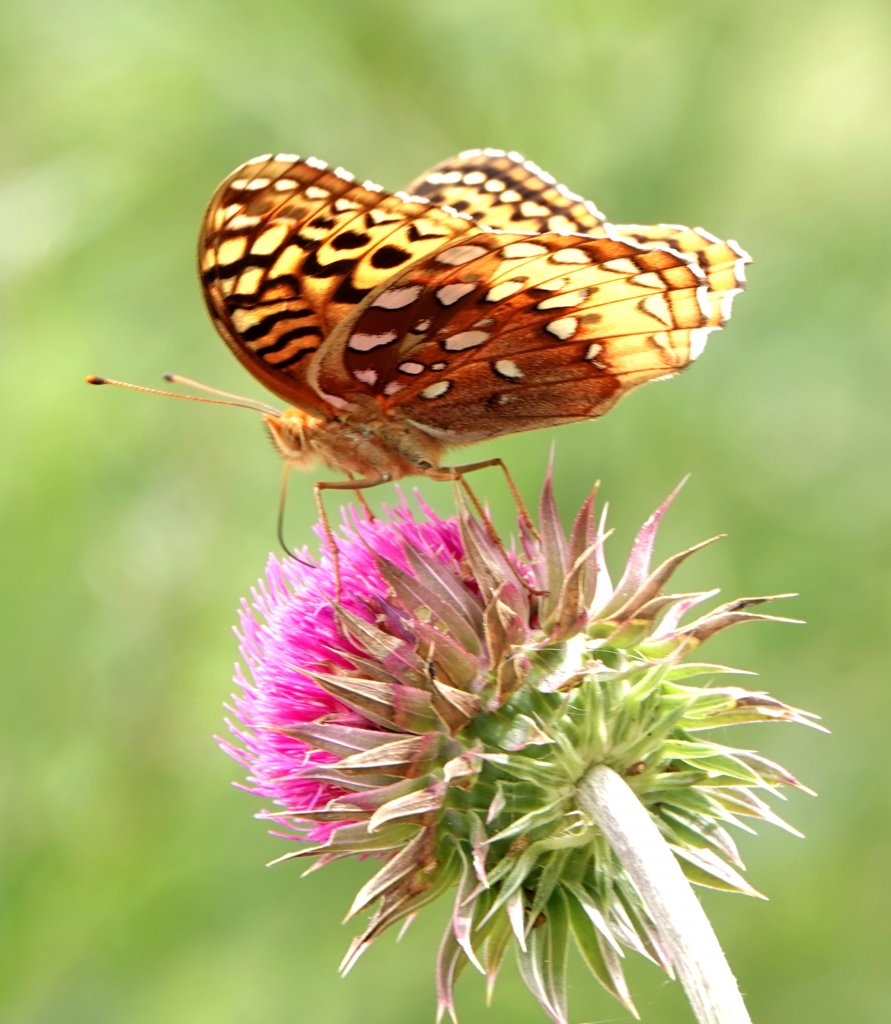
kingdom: Animalia
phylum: Arthropoda
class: Insecta
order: Lepidoptera
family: Nymphalidae
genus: Speyeria
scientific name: Speyeria cybele
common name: Great Spangled Fritillary
